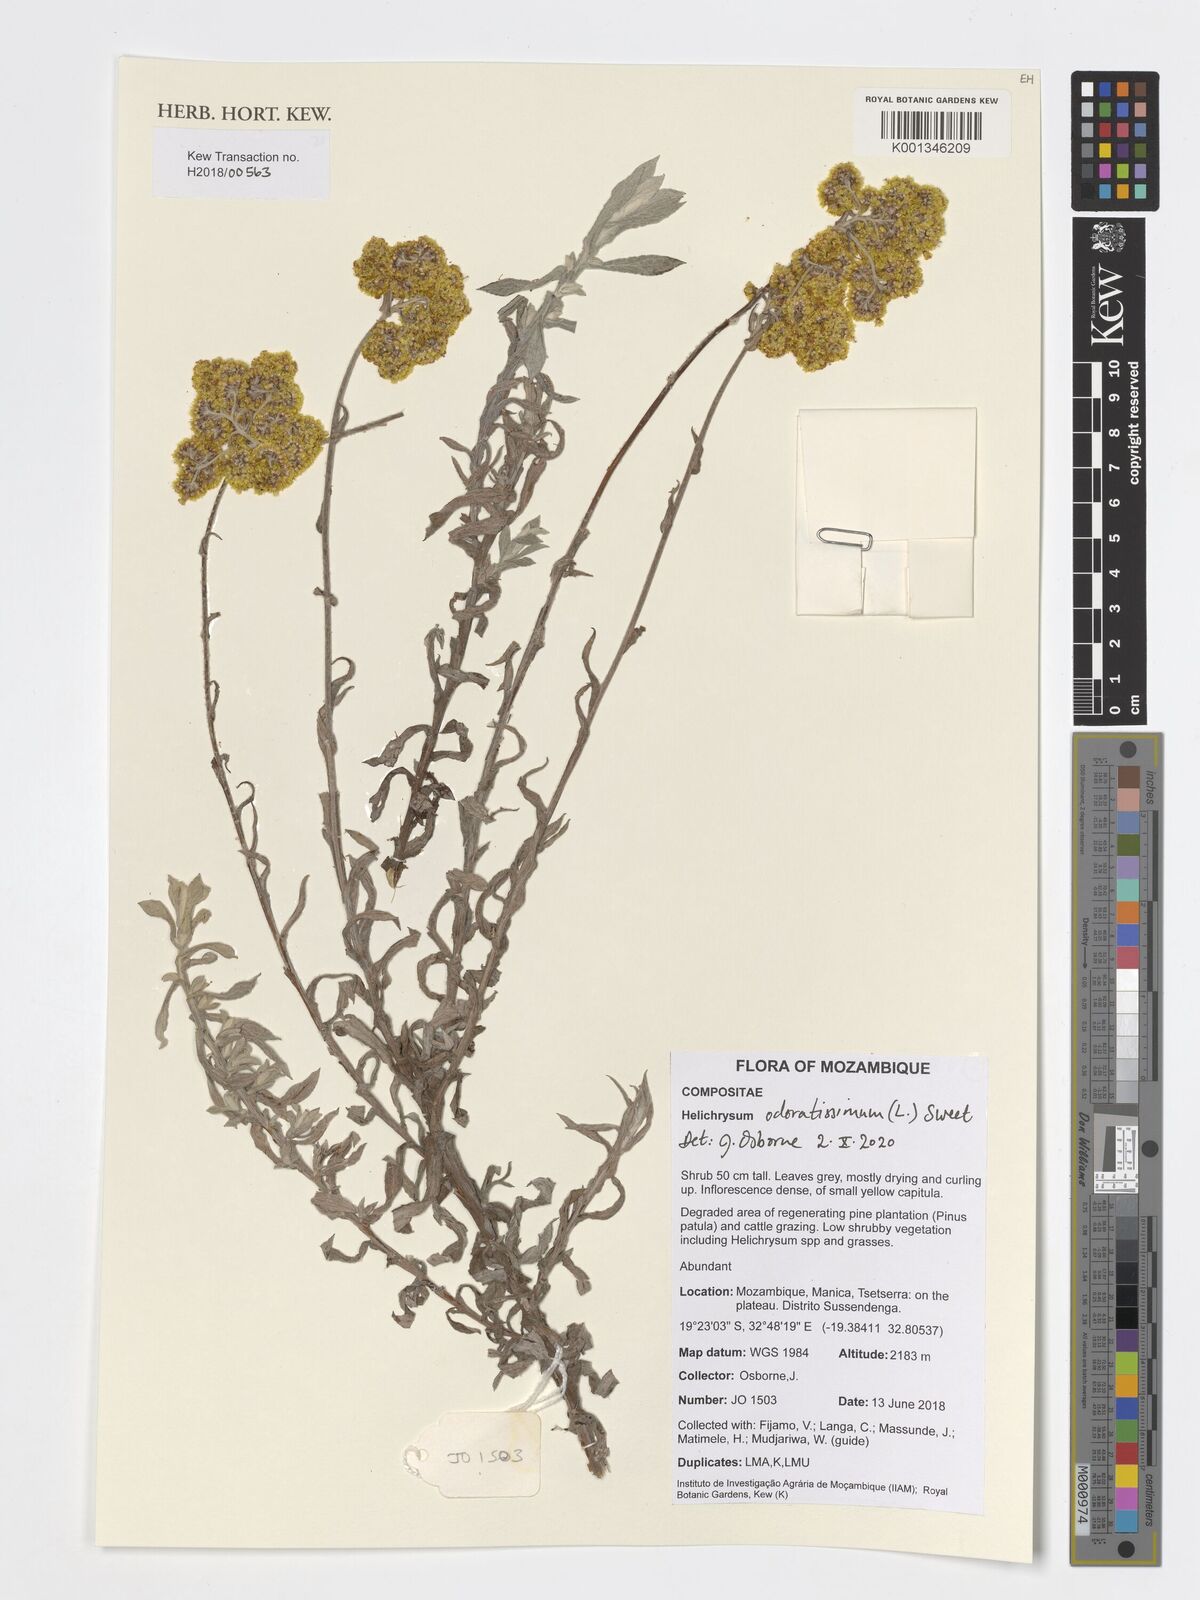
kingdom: Plantae
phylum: Tracheophyta
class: Magnoliopsida
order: Asterales
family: Asteraceae
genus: Helichrysum
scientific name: Helichrysum odoratissimum
